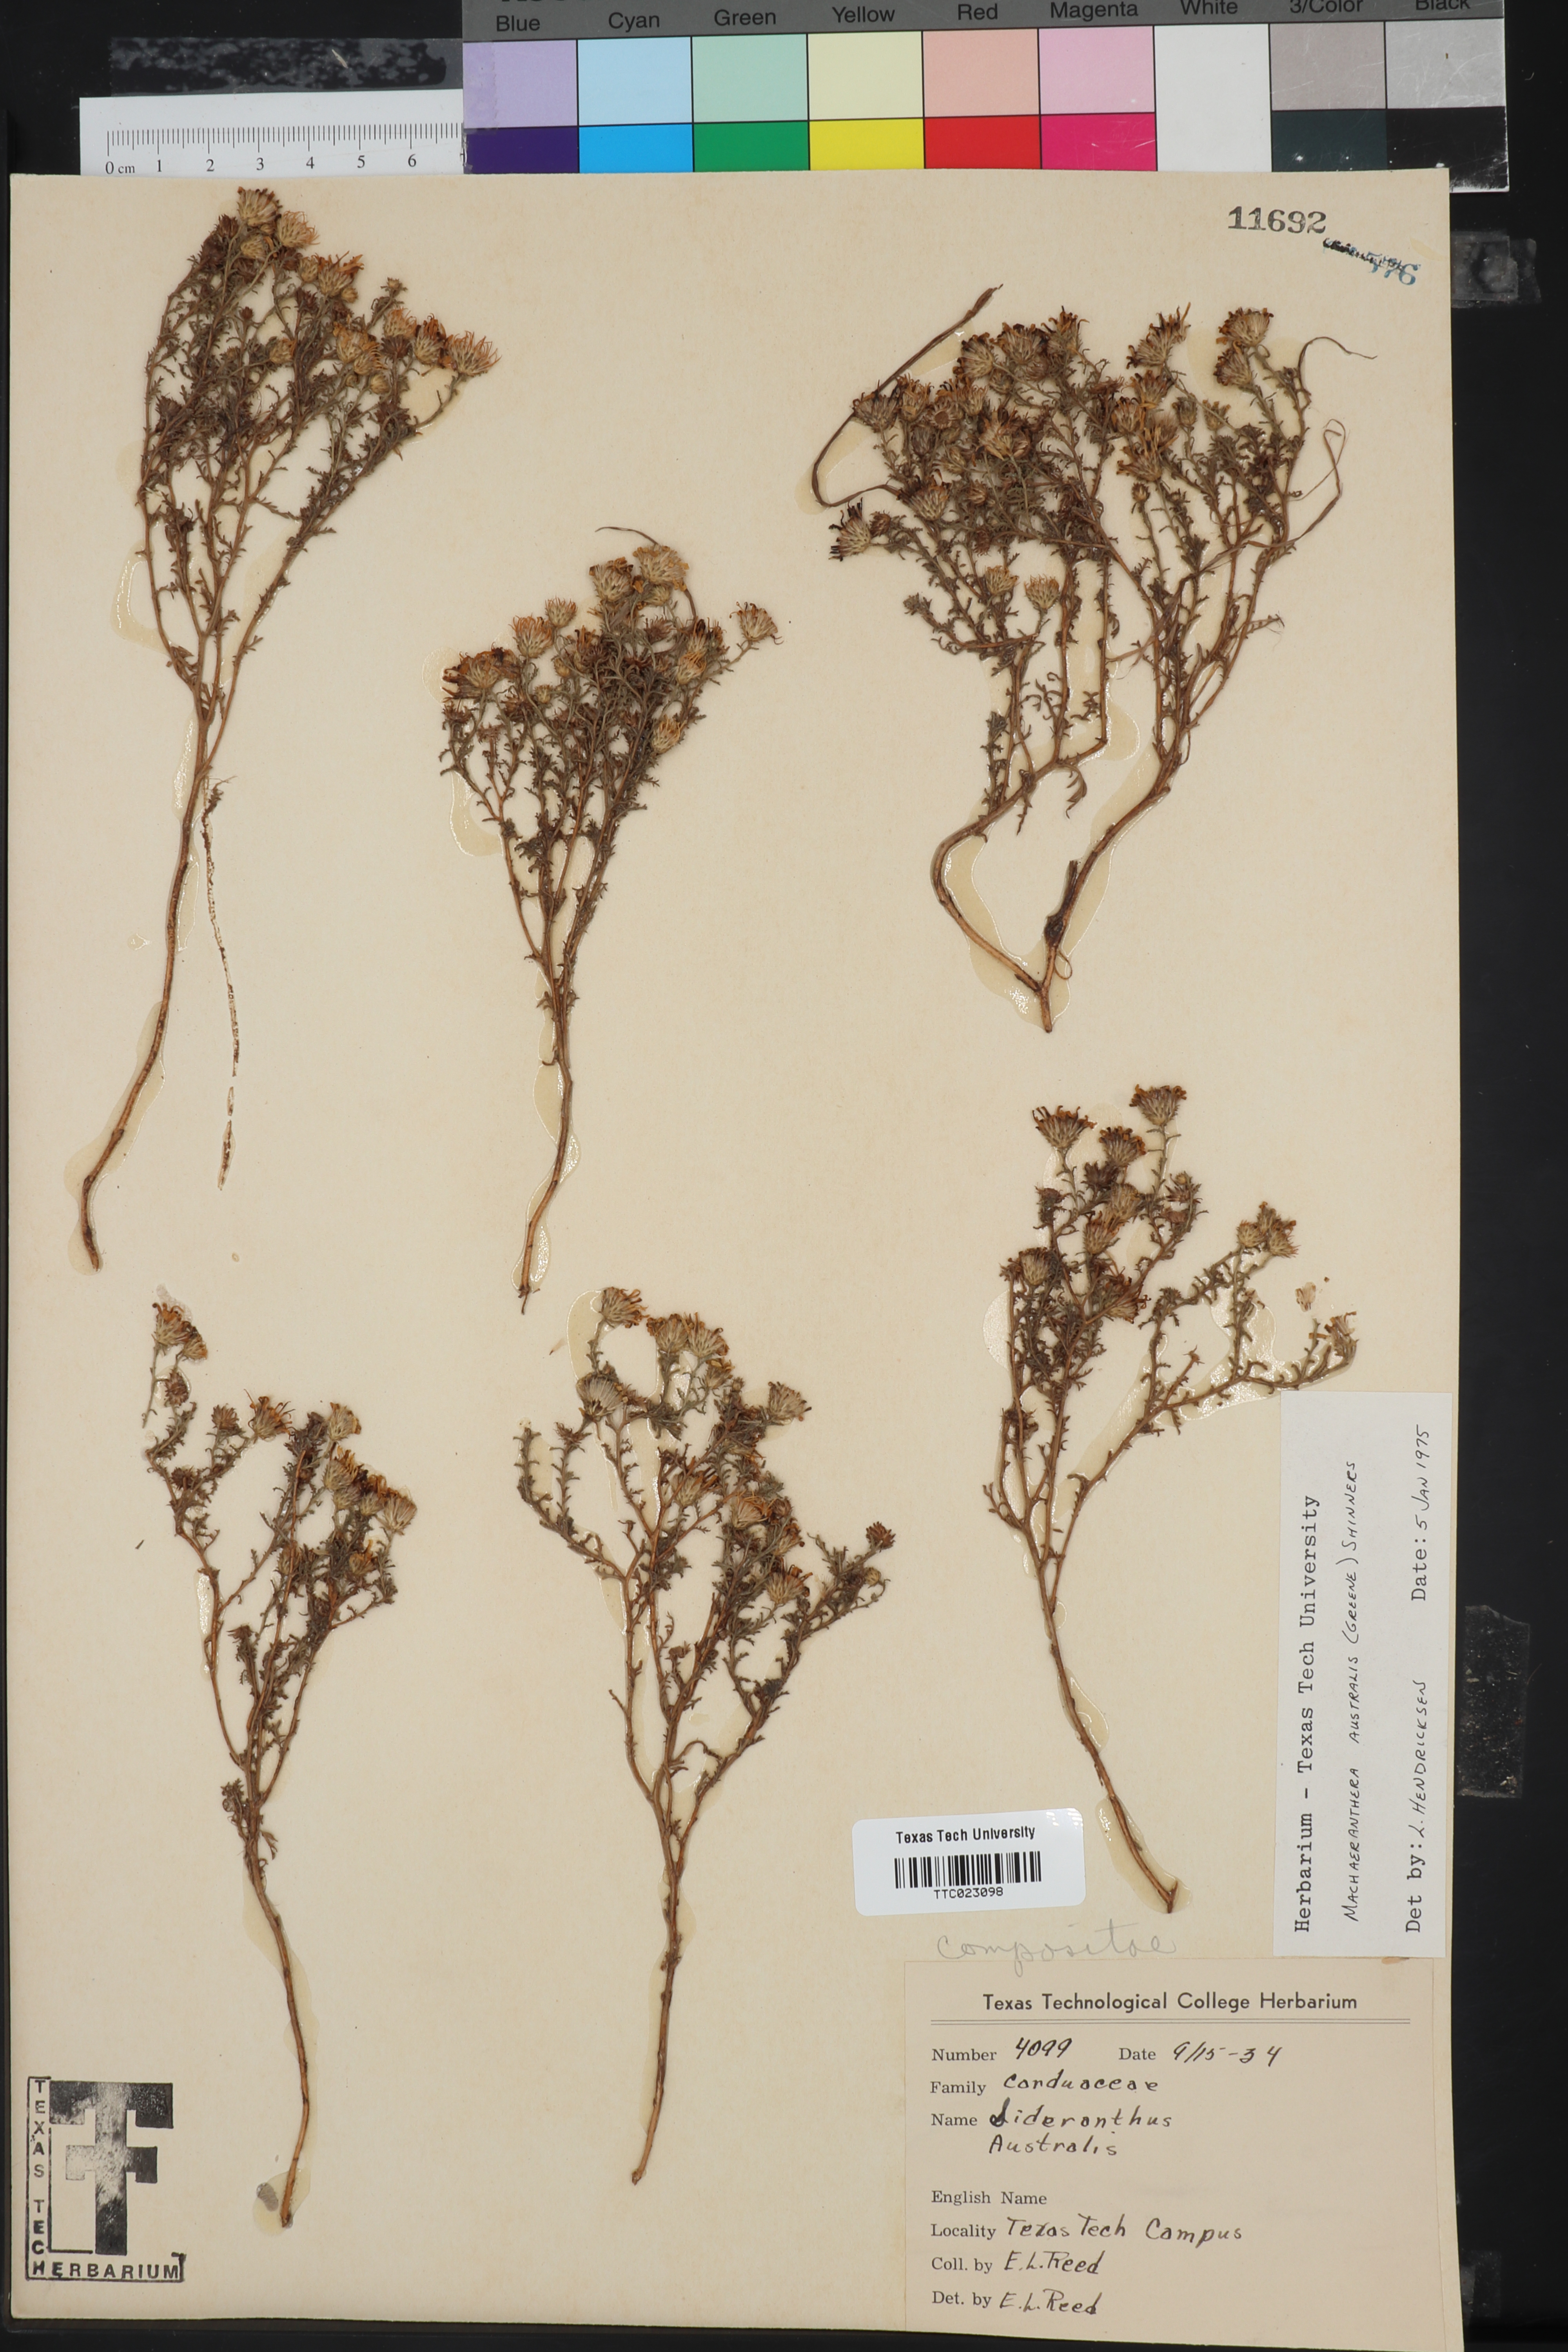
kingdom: Plantae
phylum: Tracheophyta
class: Magnoliopsida
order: Asterales
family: Asteraceae
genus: Xanthisma
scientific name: Xanthisma spinulosum
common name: Spiny goldenweed
